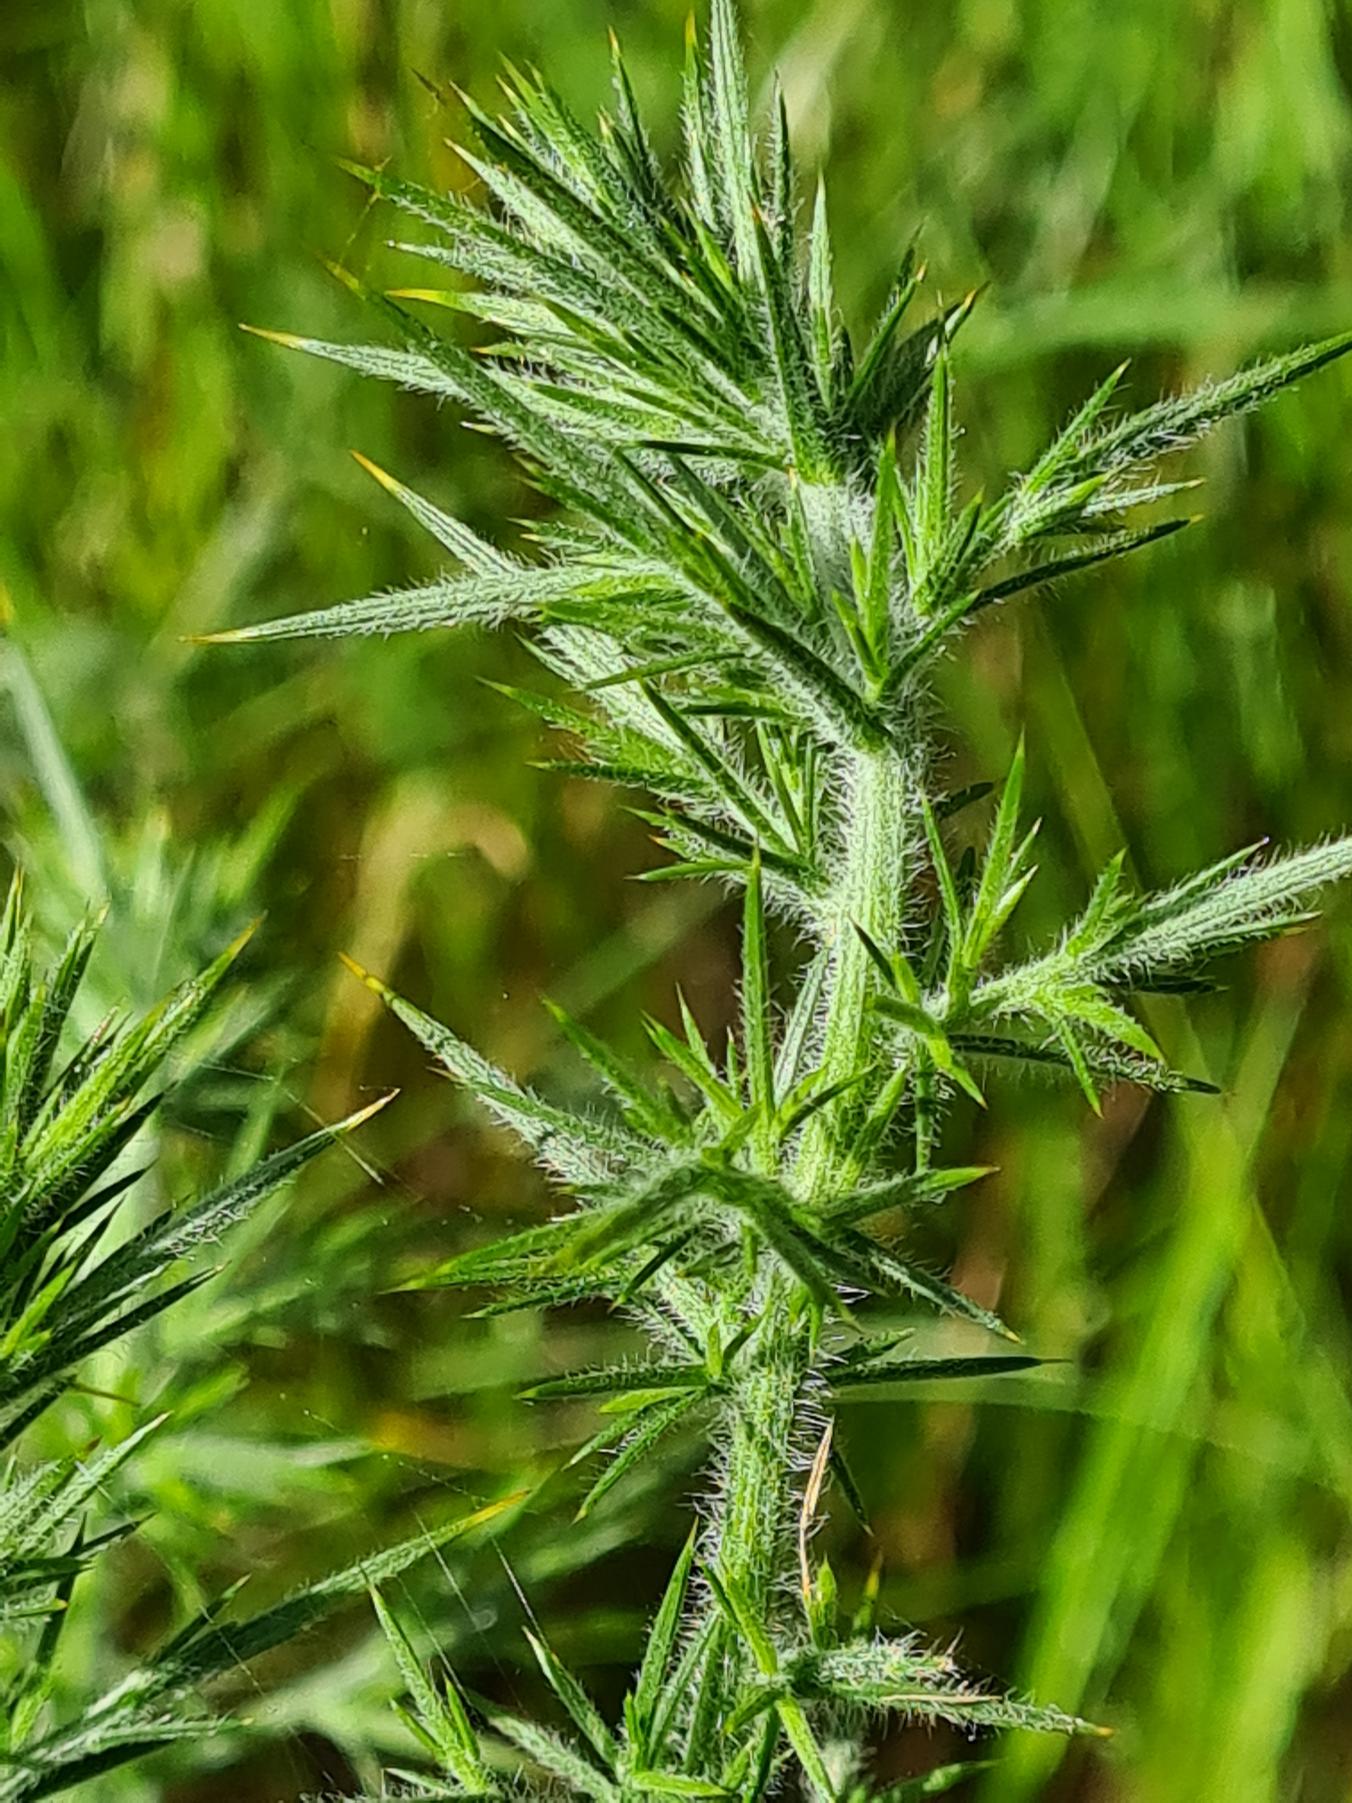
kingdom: Plantae
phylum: Tracheophyta
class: Magnoliopsida
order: Fabales
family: Fabaceae
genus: Ulex
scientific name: Ulex europaeus
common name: Tornblad
